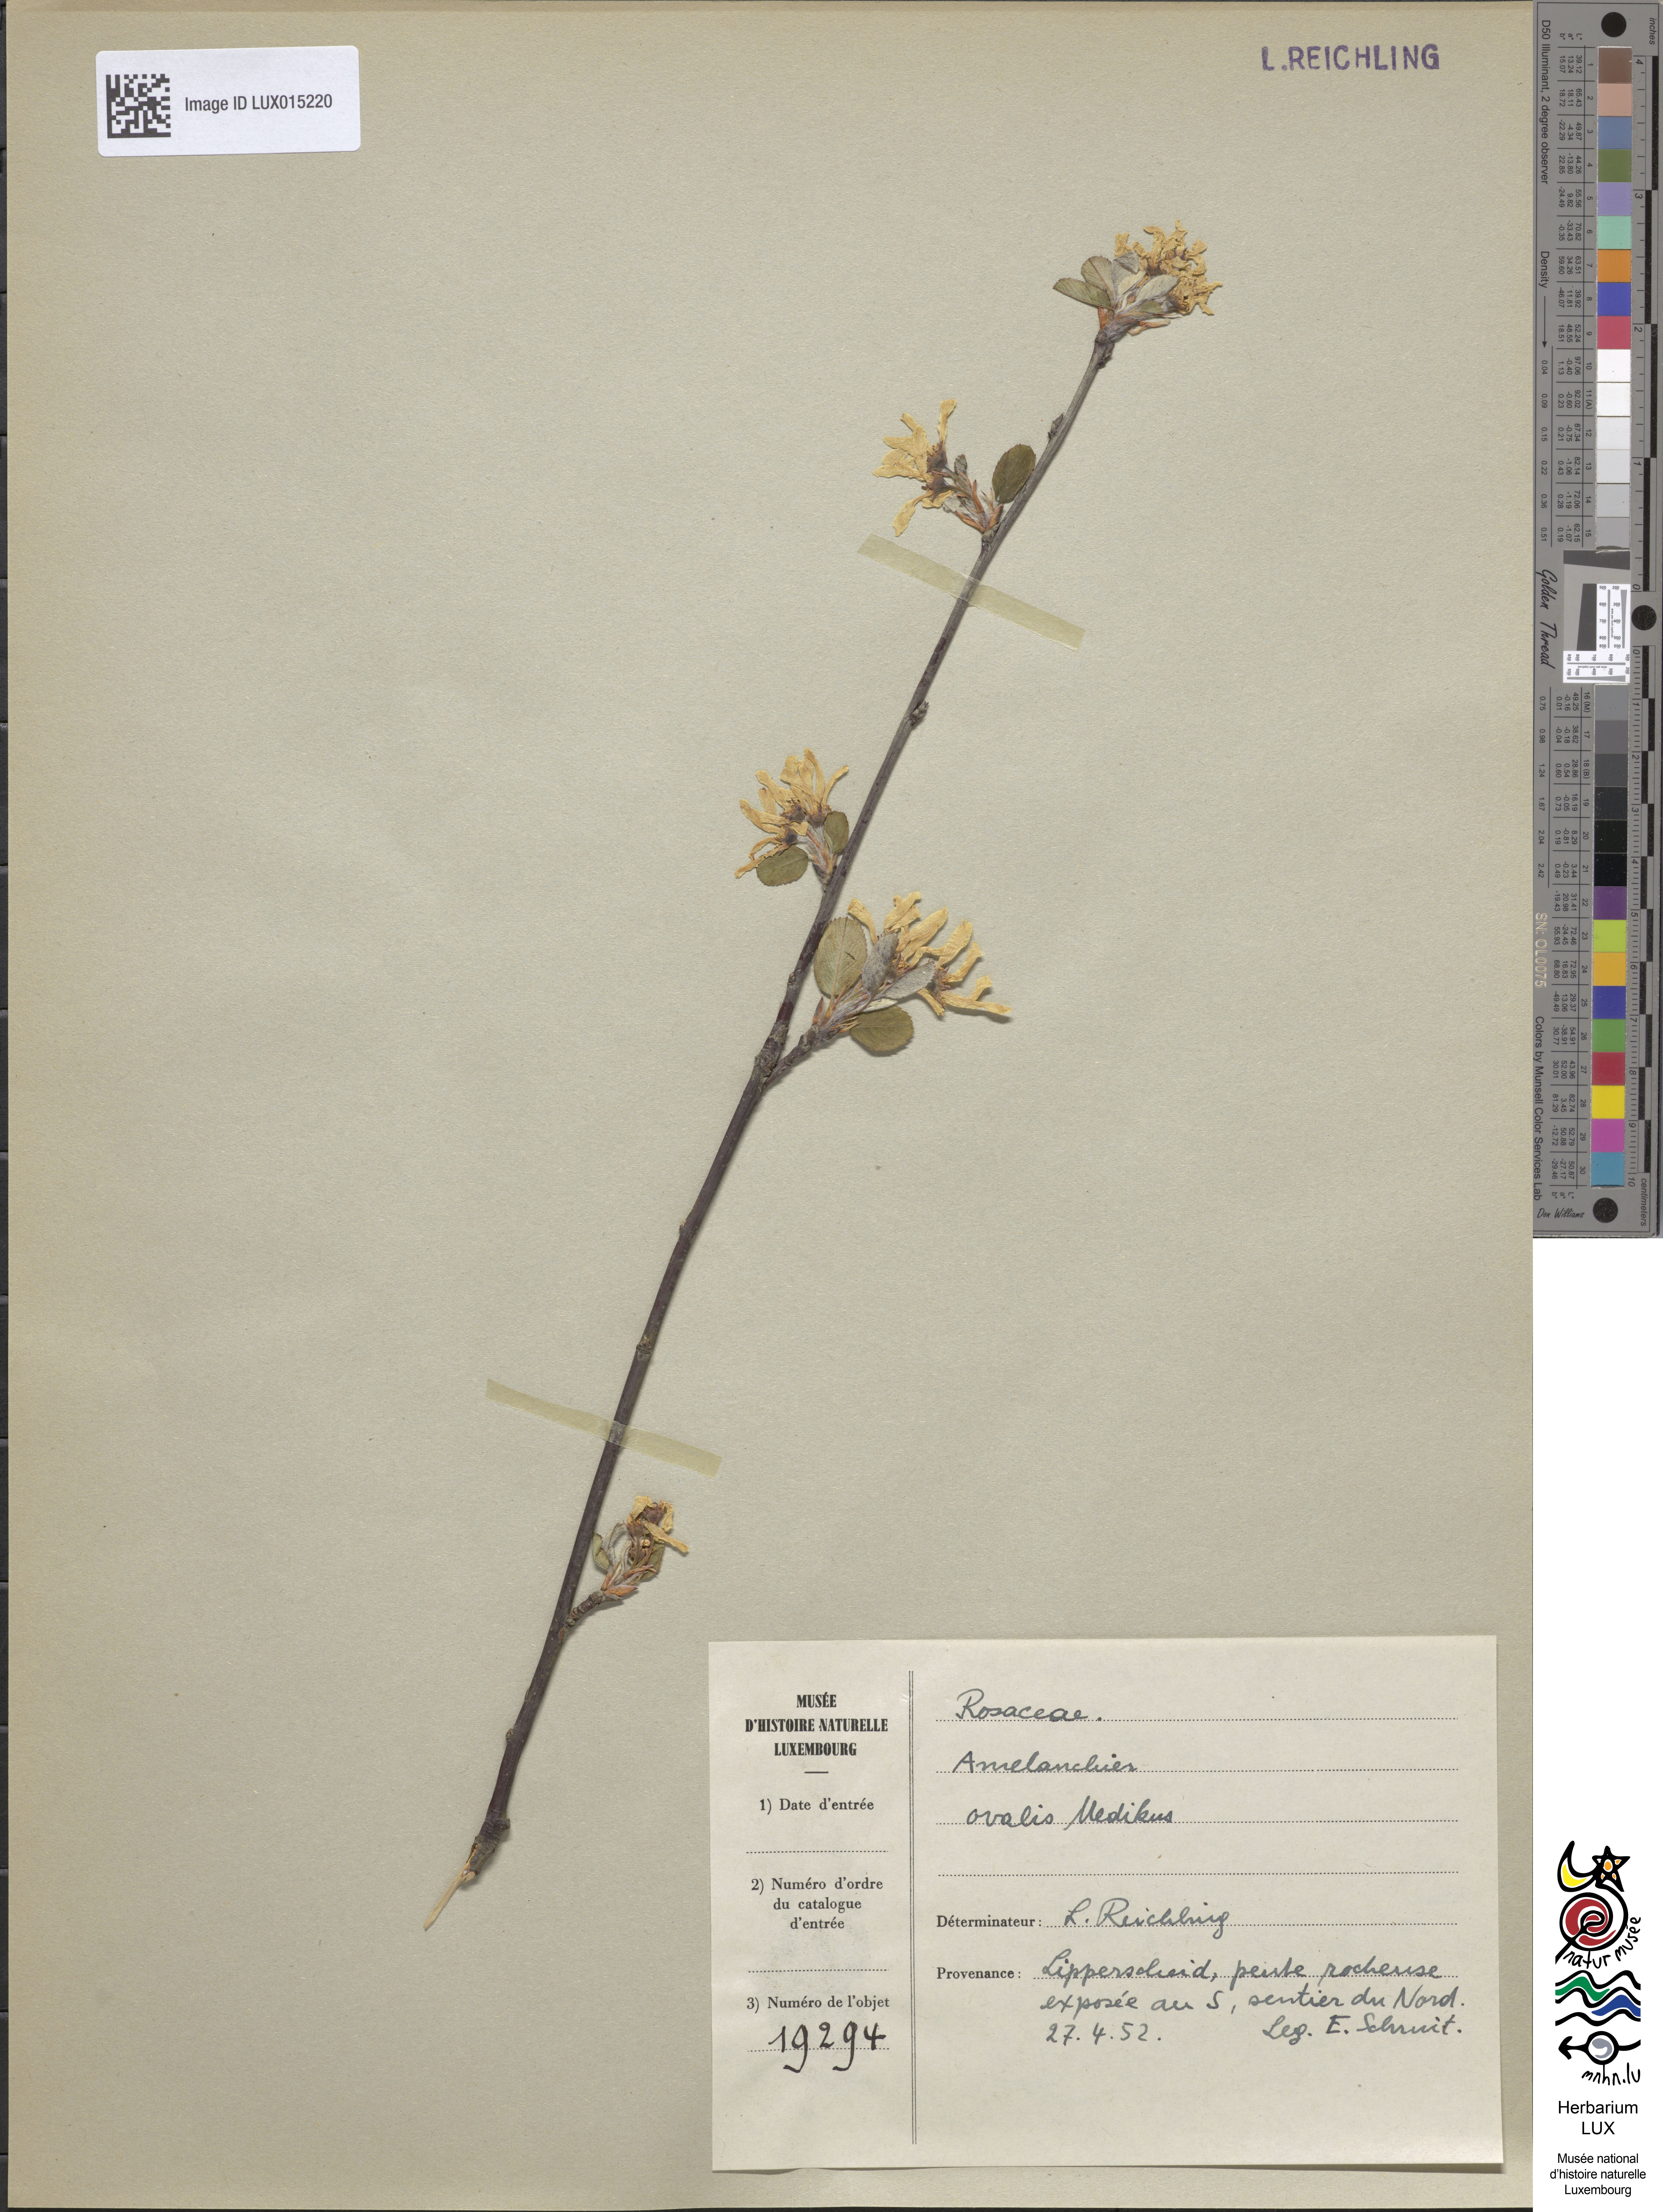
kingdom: Plantae
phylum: Tracheophyta
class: Magnoliopsida
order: Rosales
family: Rosaceae
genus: Amelanchier
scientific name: Amelanchier ovalis
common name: Serviceberry
